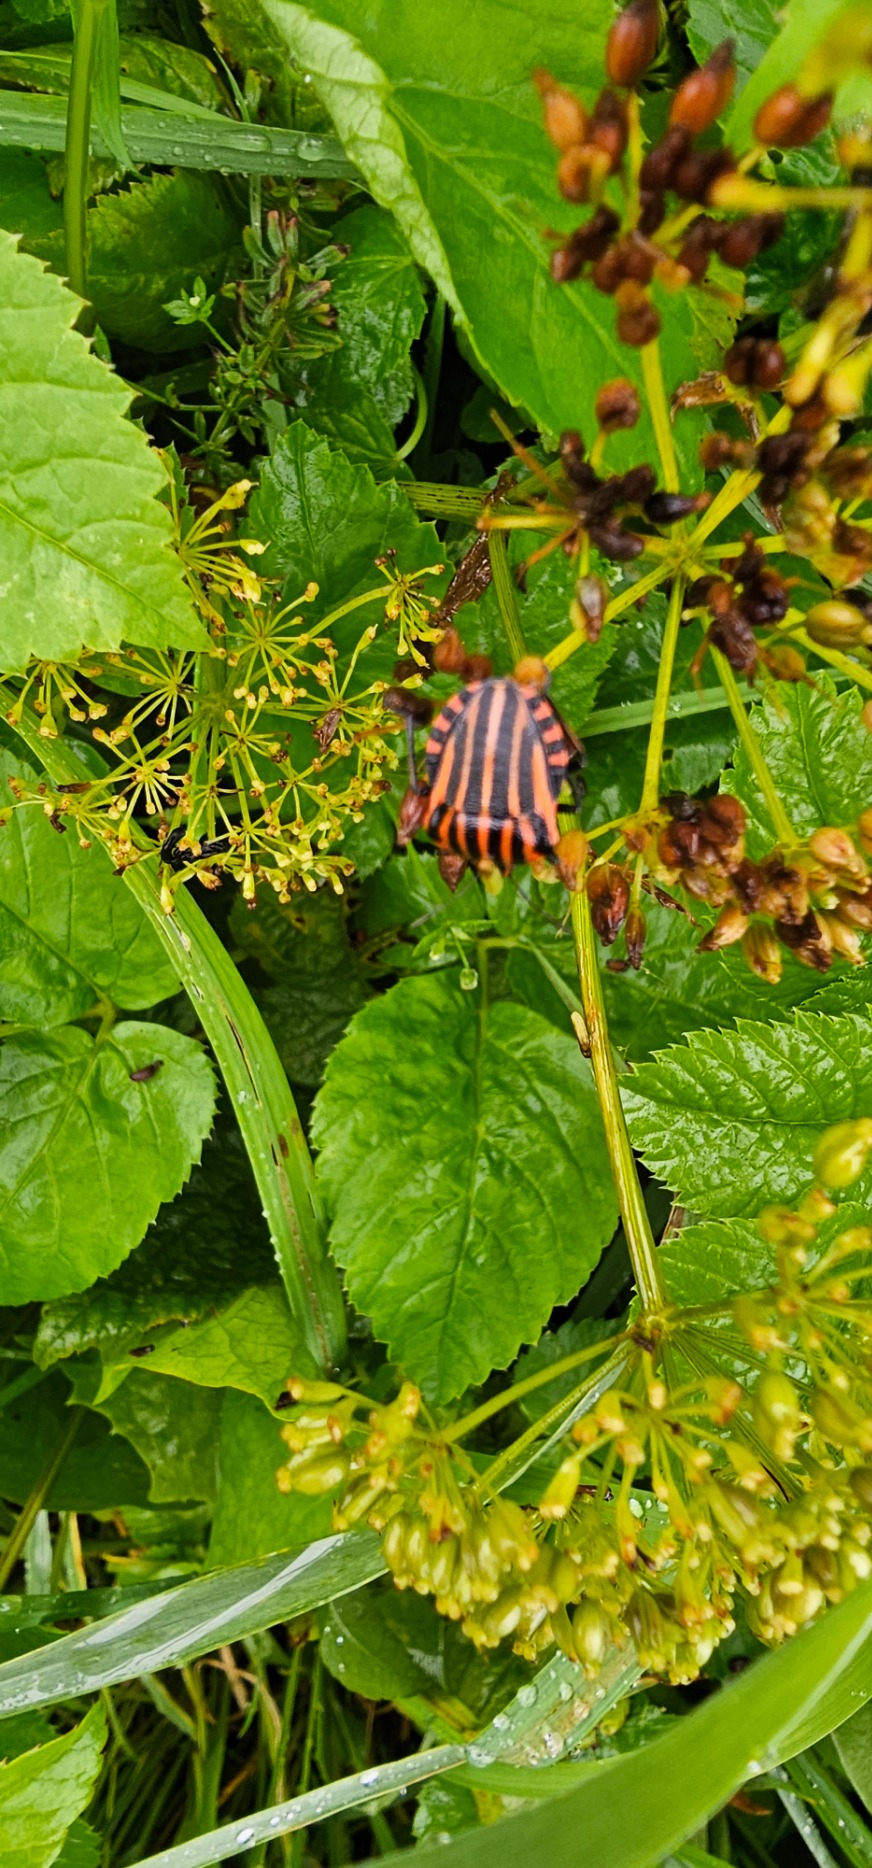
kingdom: Animalia
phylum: Arthropoda
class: Insecta
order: Hemiptera
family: Pentatomidae
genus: Graphosoma
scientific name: Graphosoma italicum
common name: Stribetæge
